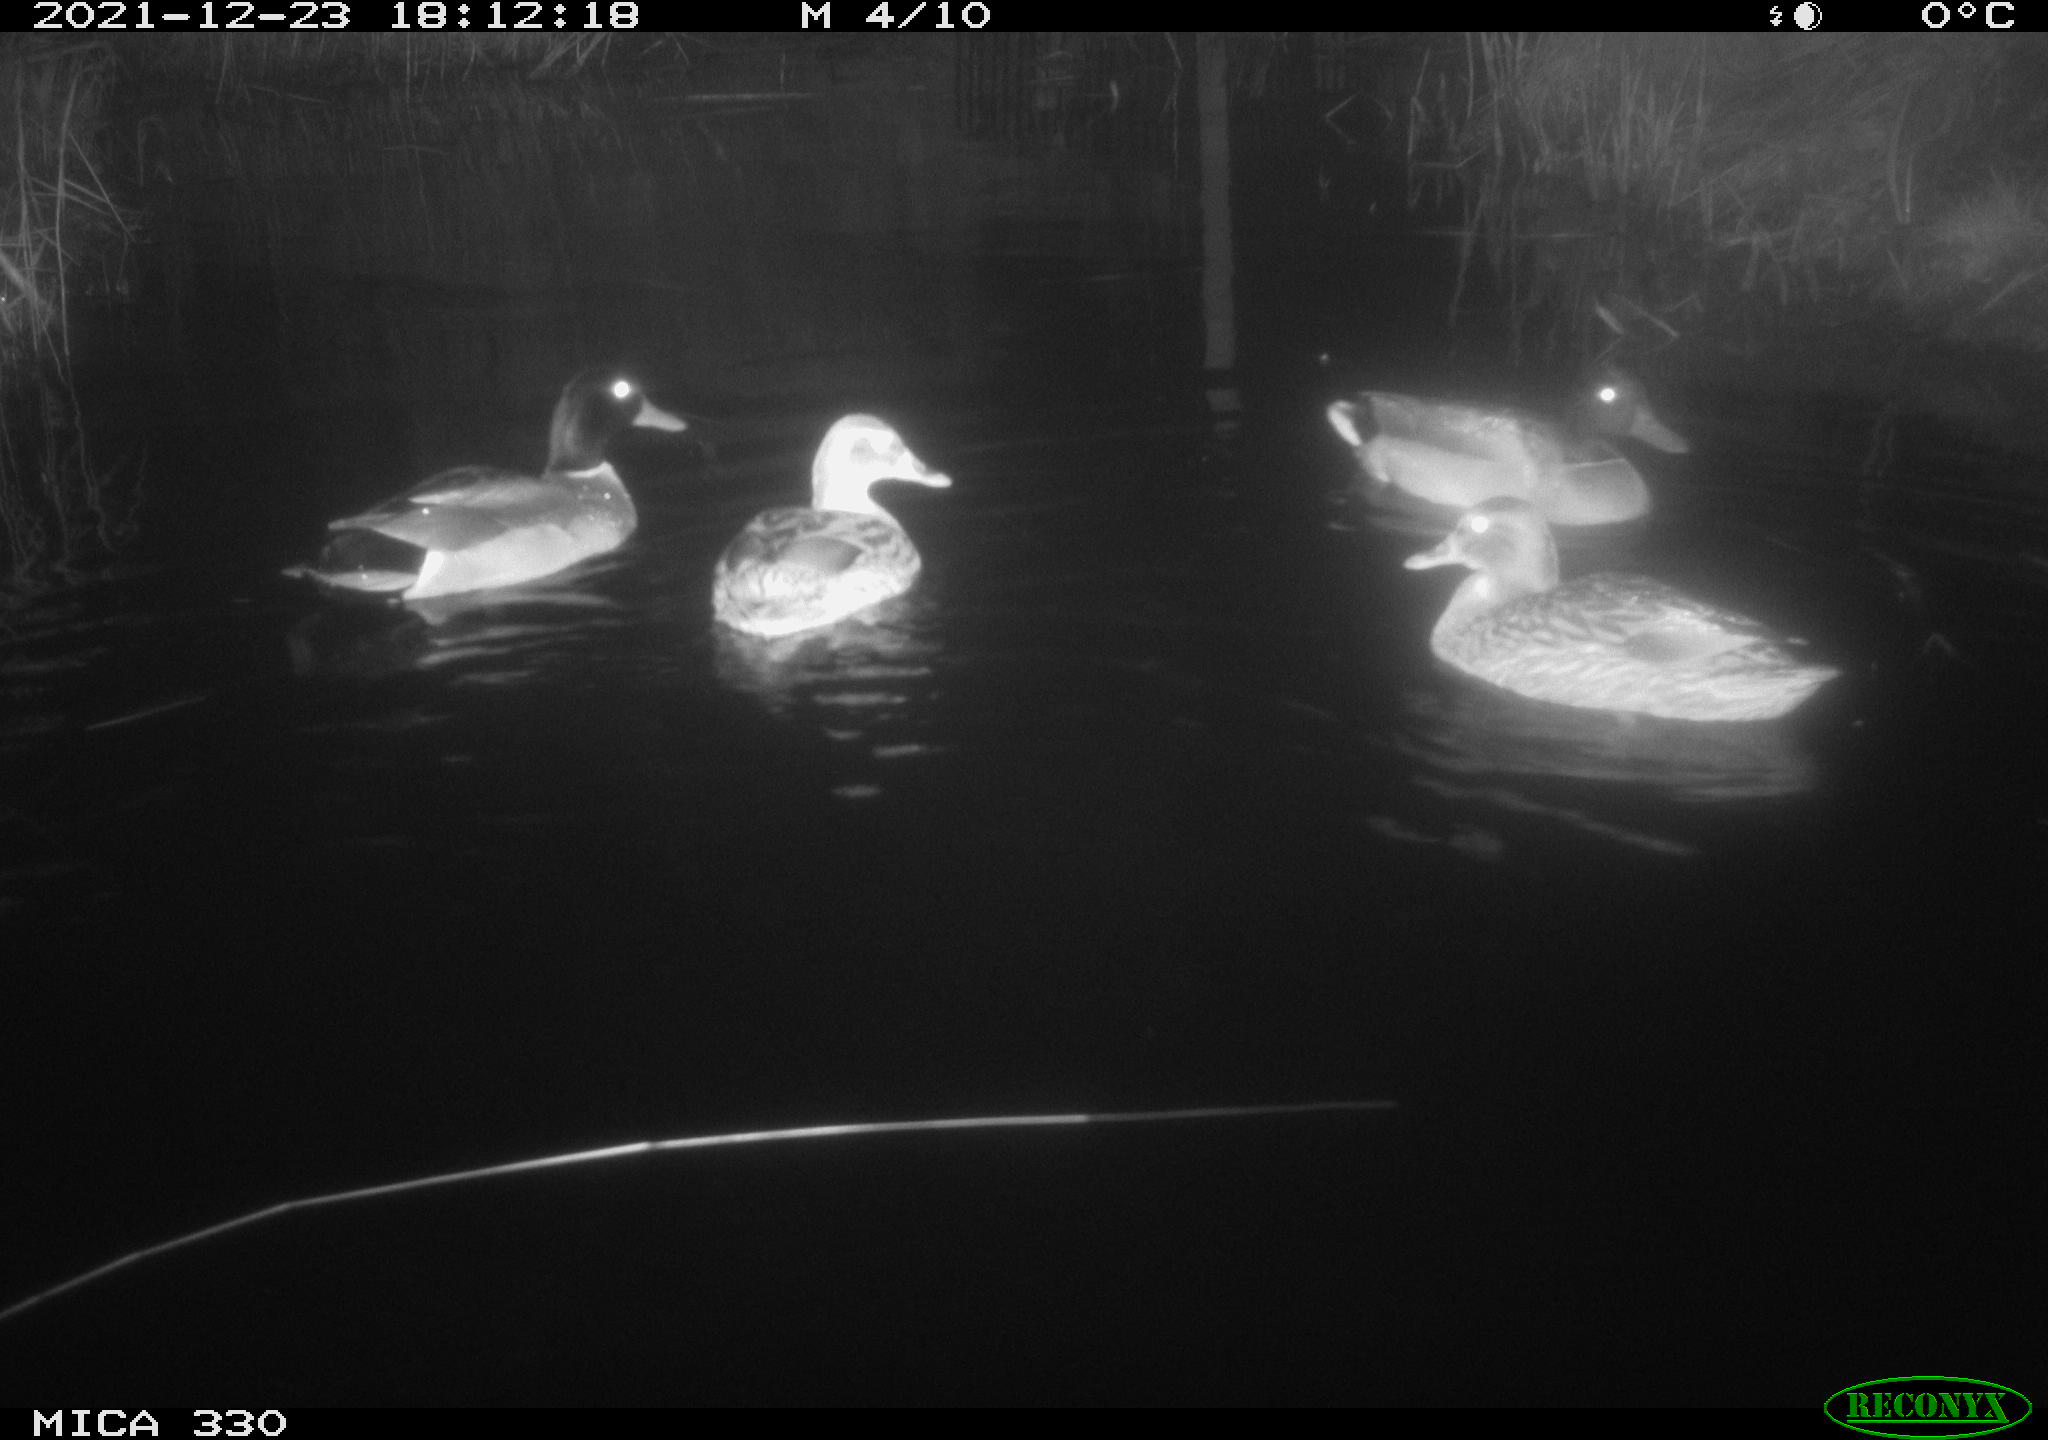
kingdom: Animalia
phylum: Chordata
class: Aves
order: Anseriformes
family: Anatidae
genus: Anas
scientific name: Anas platyrhynchos
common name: Mallard
